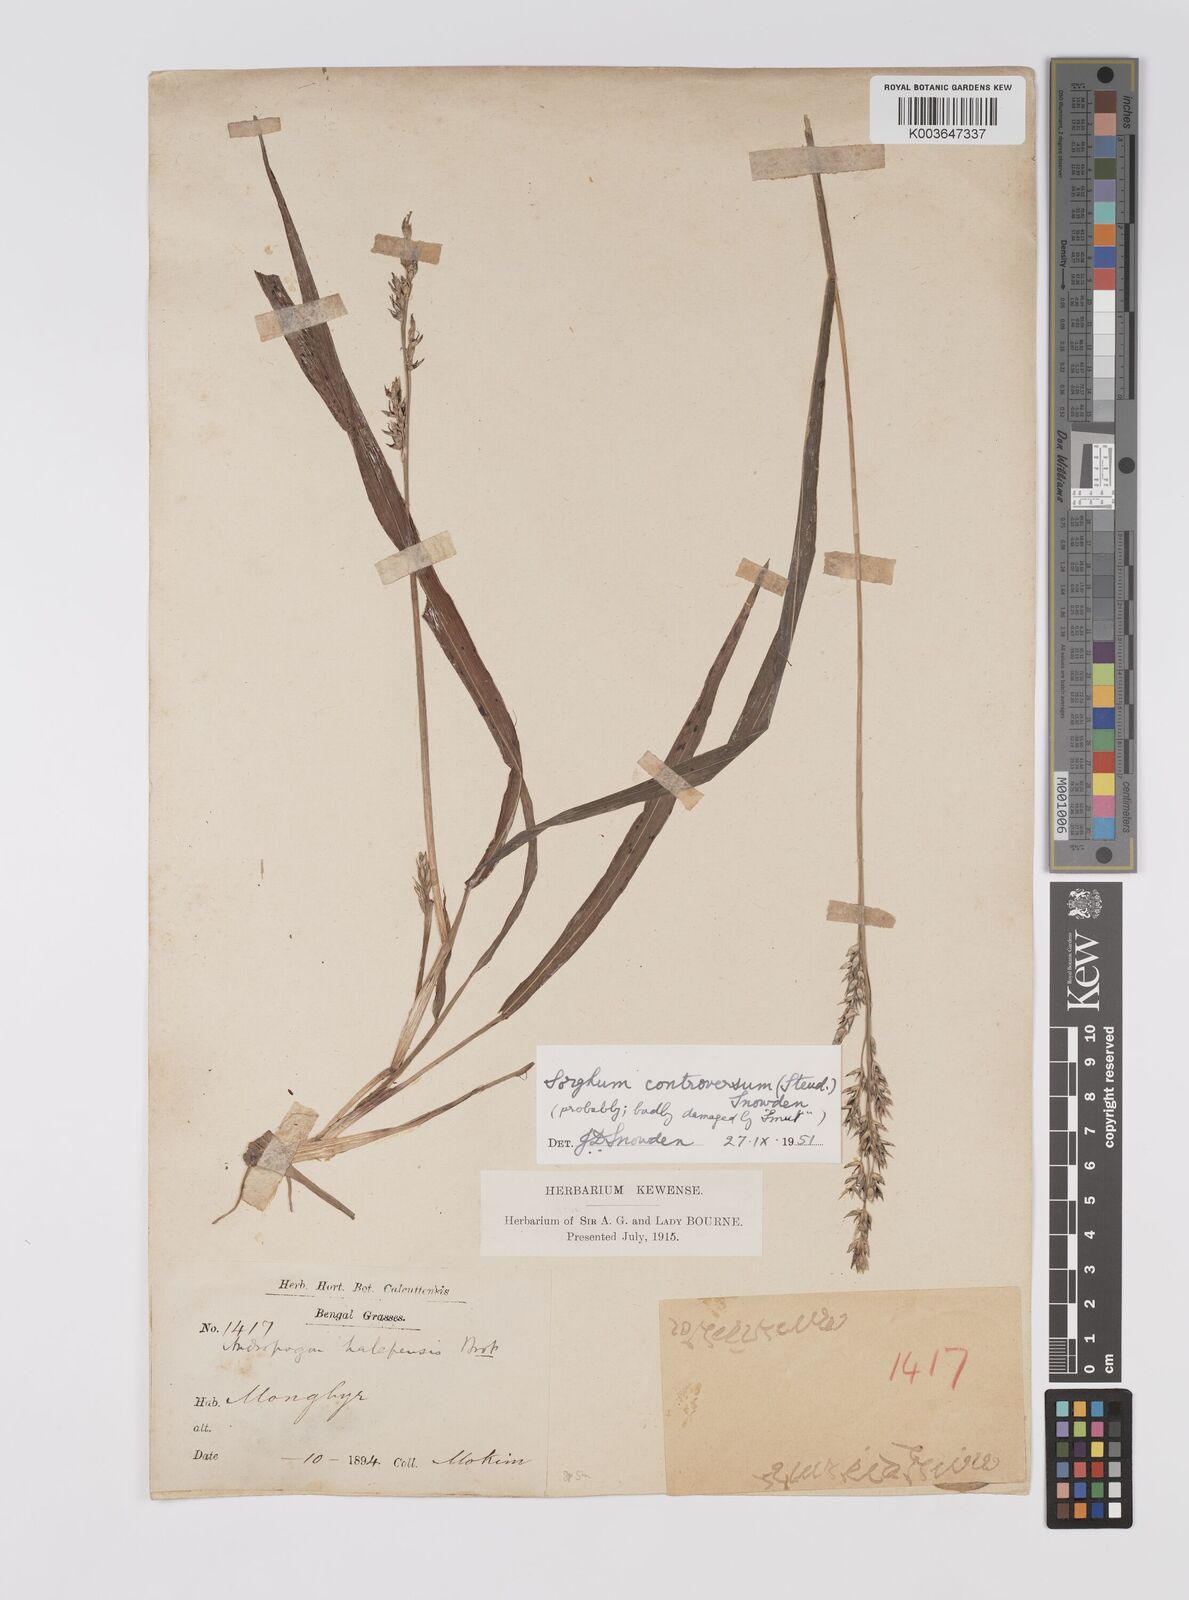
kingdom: Plantae
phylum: Tracheophyta
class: Liliopsida
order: Poales
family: Poaceae
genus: Sorghum
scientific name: Sorghum controversum
